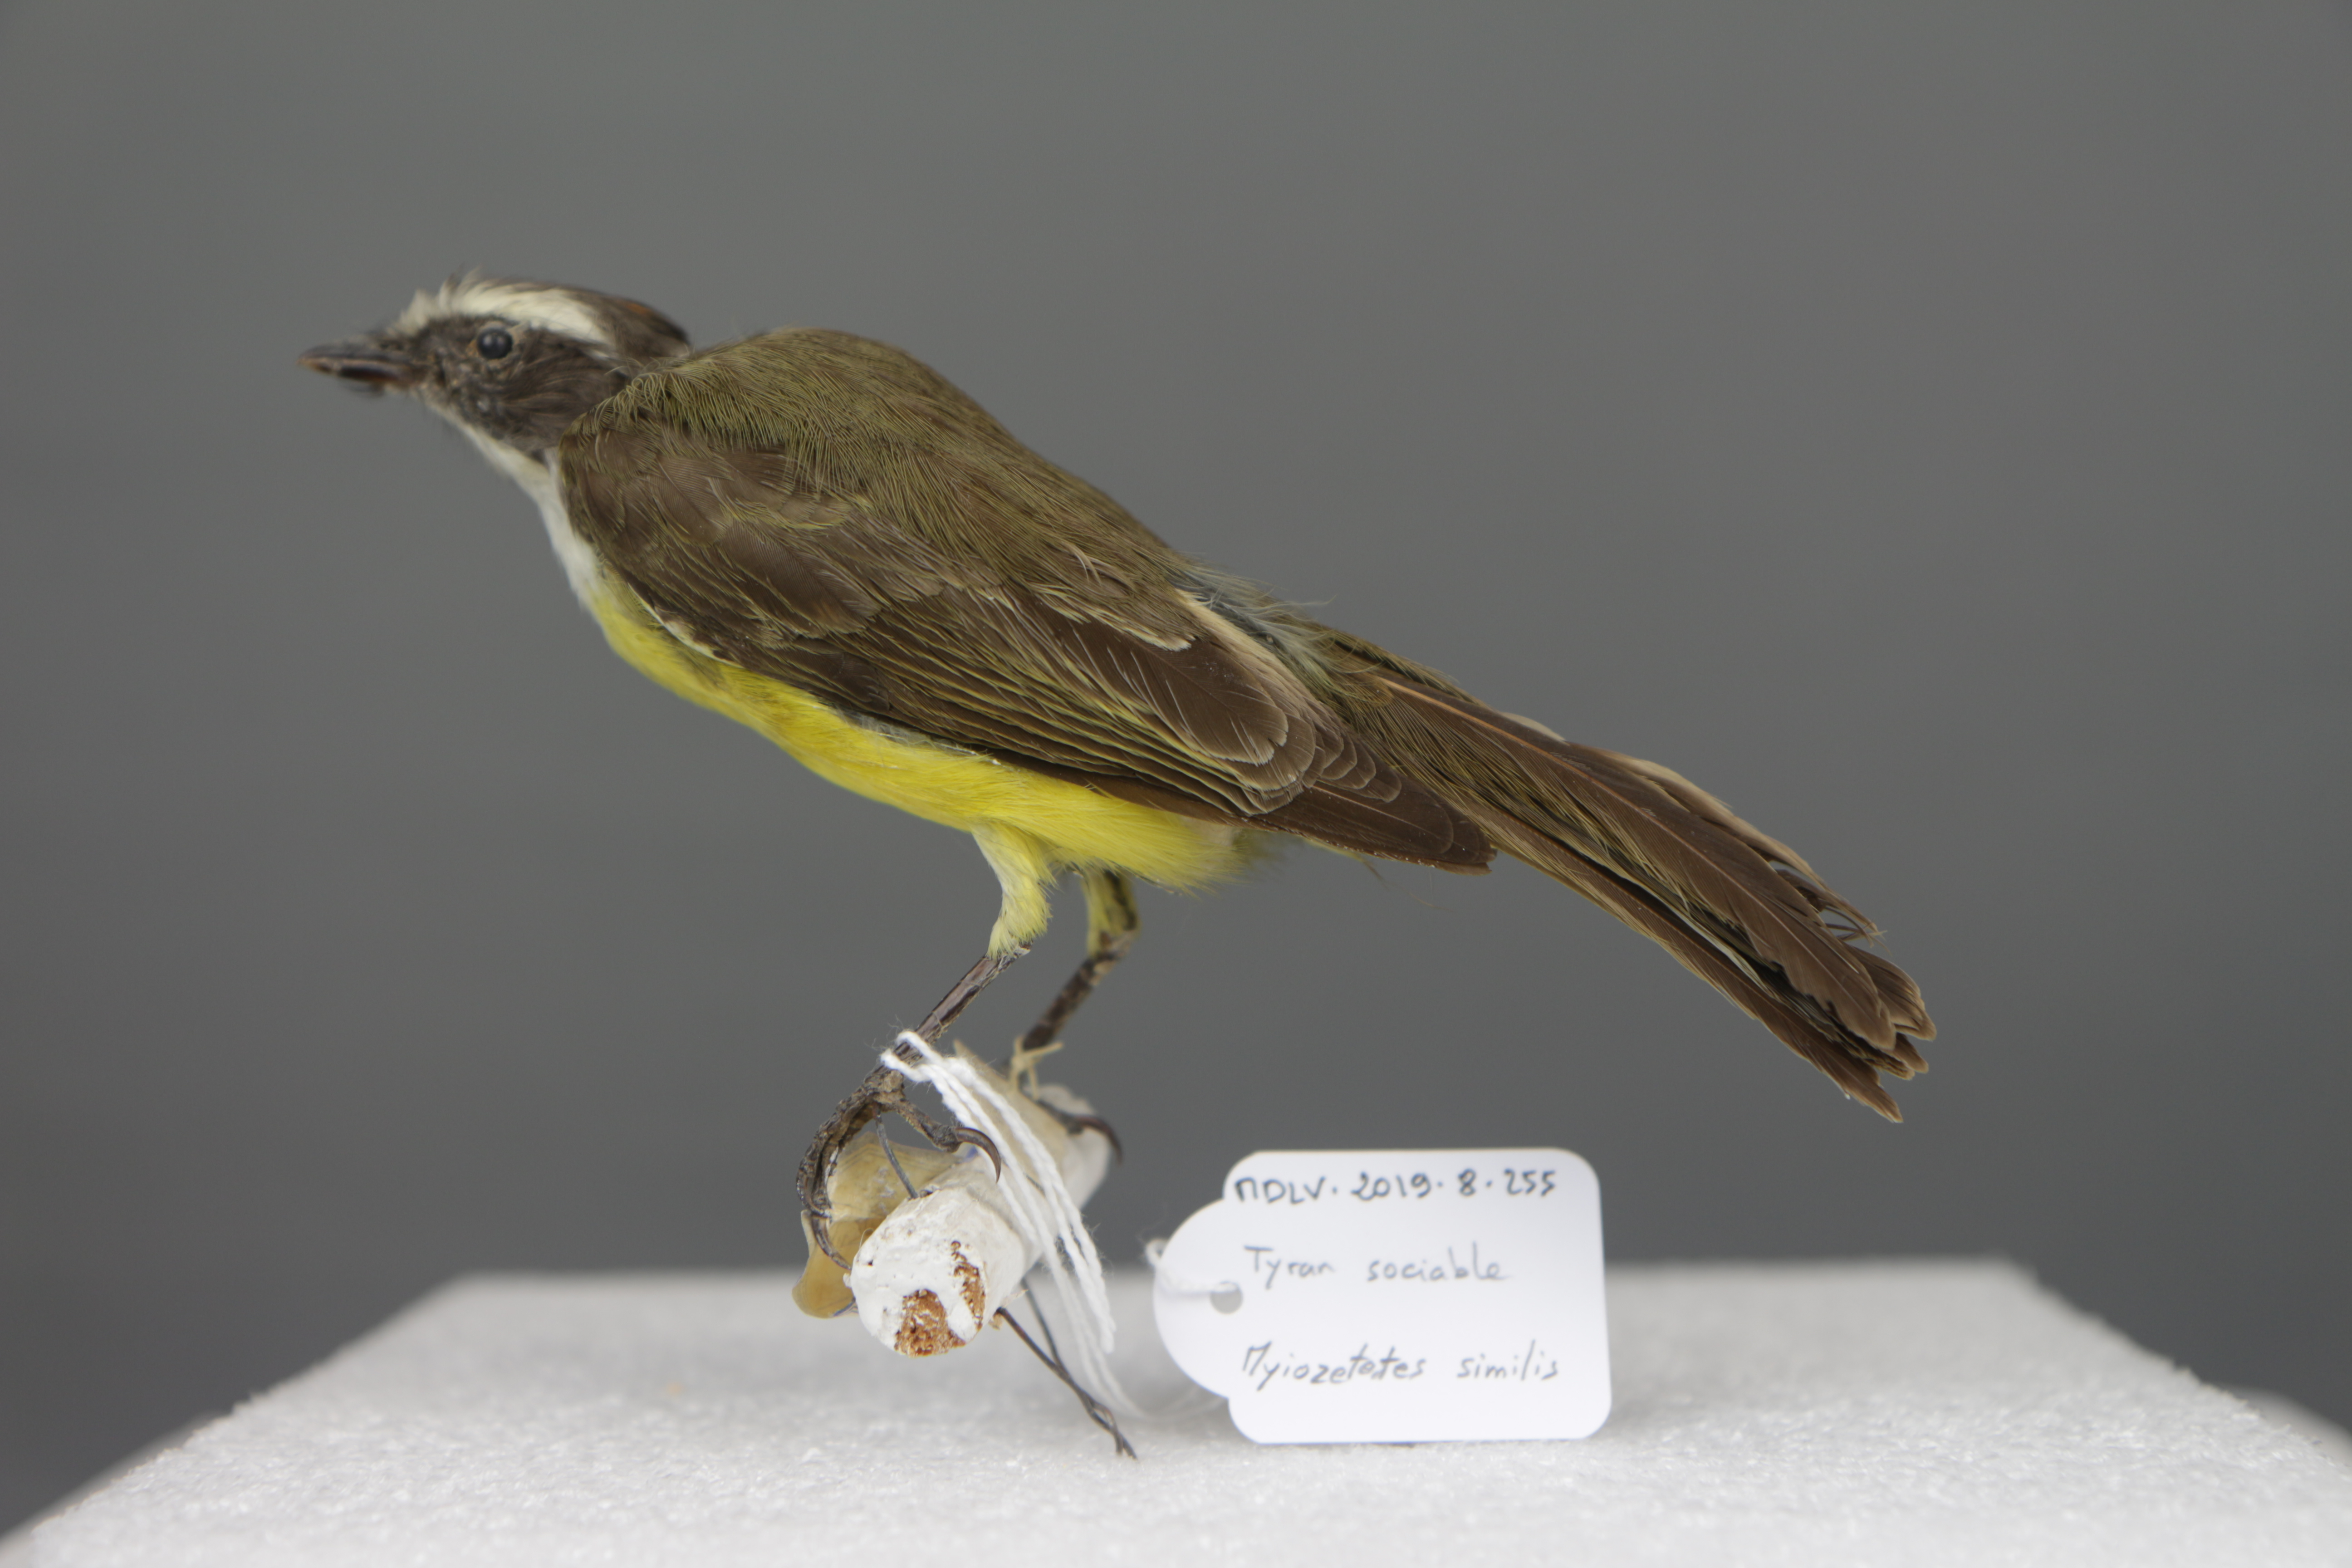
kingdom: Animalia
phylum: Chordata
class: Aves
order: Passeriformes
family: Tyrannidae
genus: Myiozetetes
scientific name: Myiozetetes similis
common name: Social flycatcher
